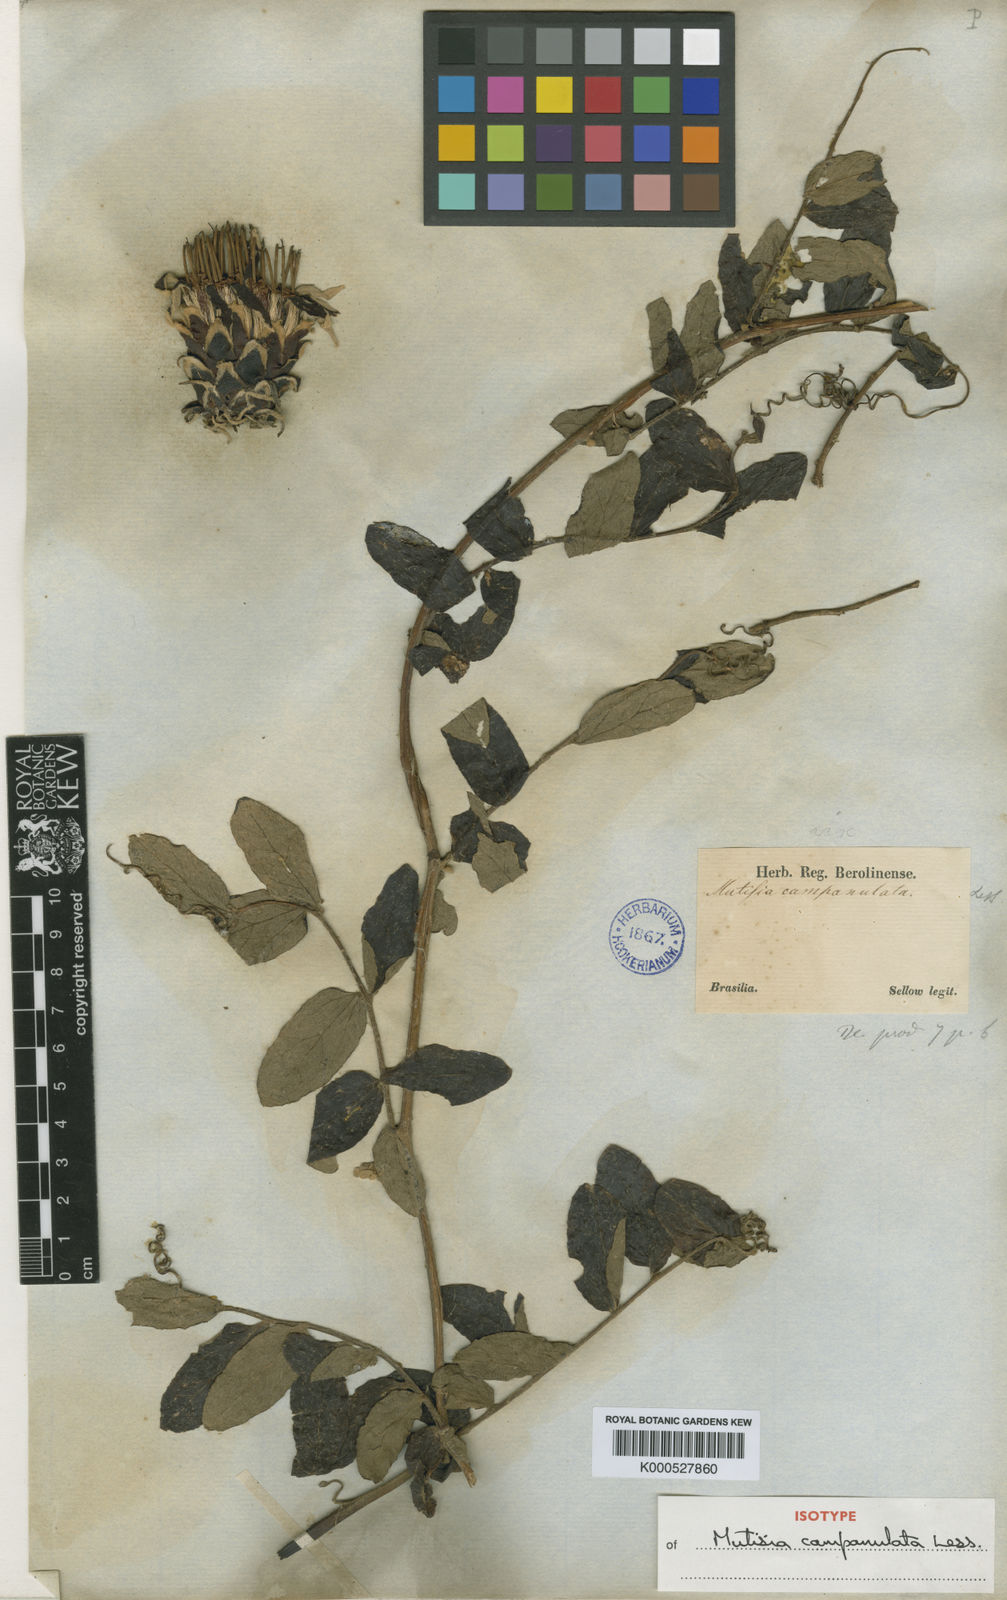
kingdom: Plantae
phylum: Tracheophyta
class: Magnoliopsida
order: Asterales
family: Asteraceae
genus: Mutisia
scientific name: Mutisia campanulata
